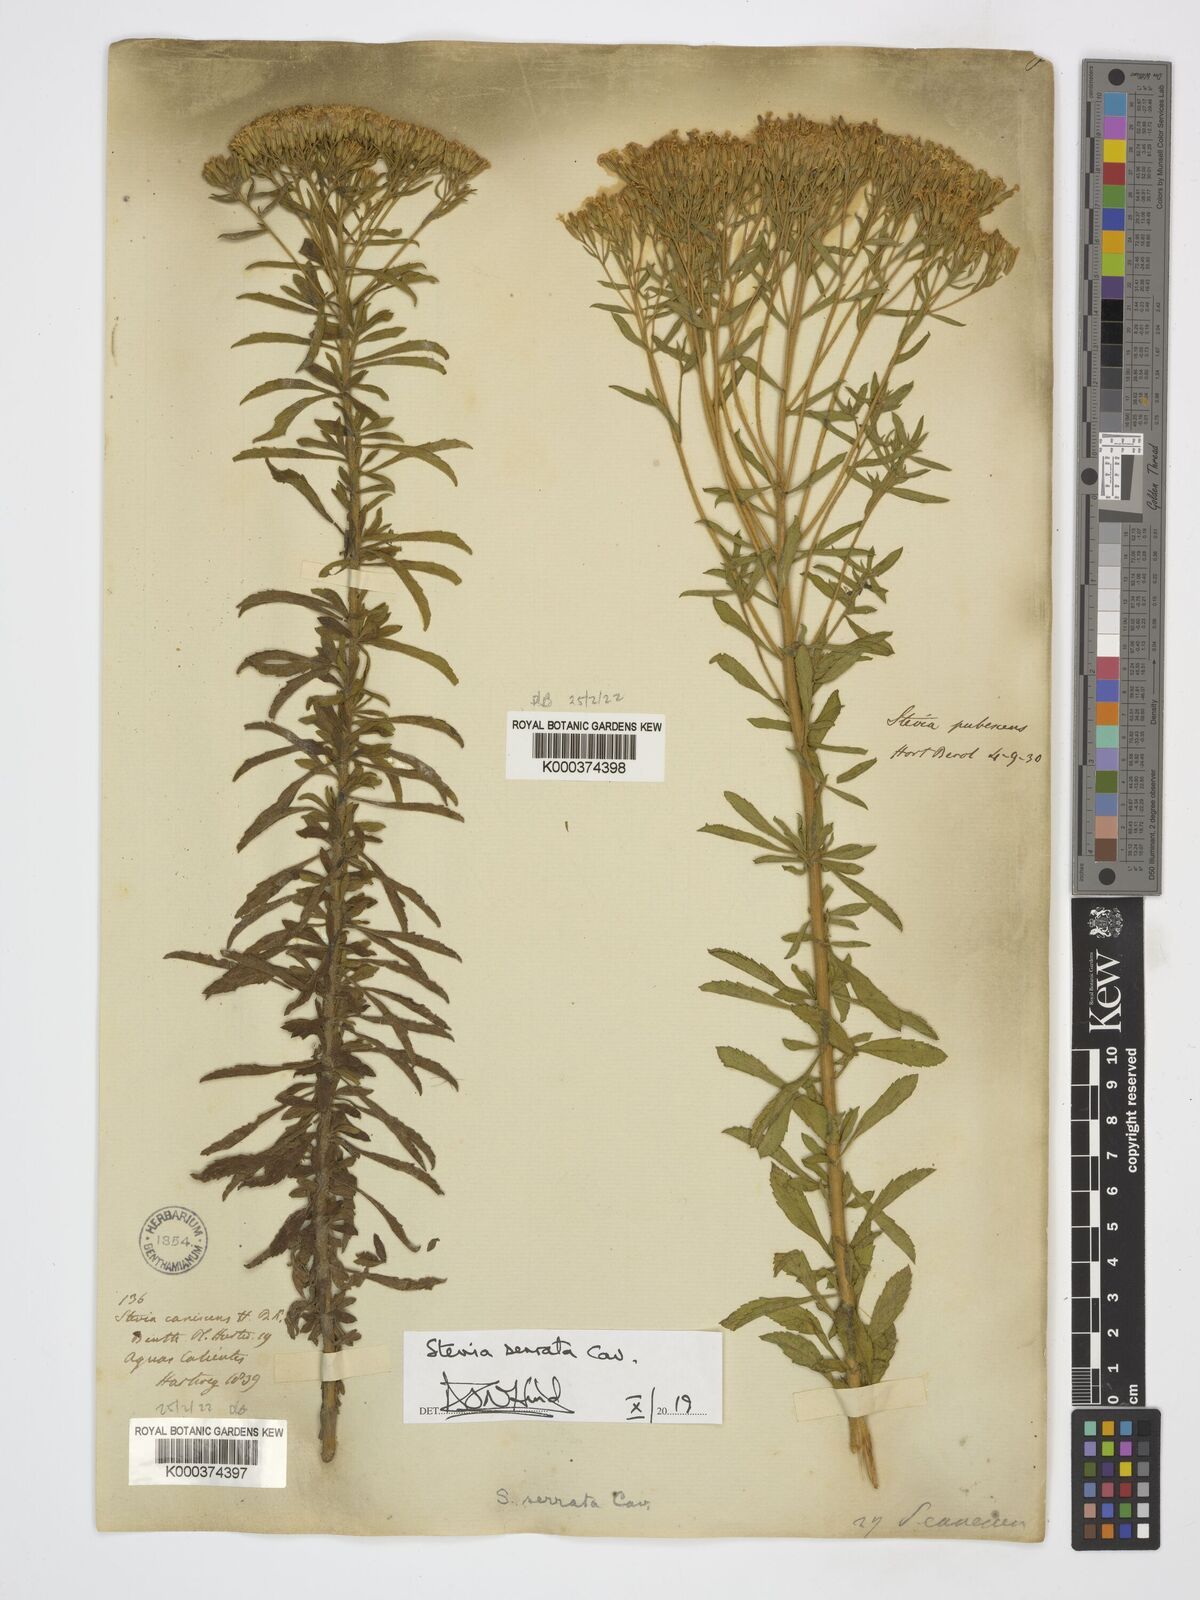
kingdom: Plantae
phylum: Tracheophyta
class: Magnoliopsida
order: Asterales
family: Asteraceae
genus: Stevia
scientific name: Stevia serrata
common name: Sawtooth candyleaf
